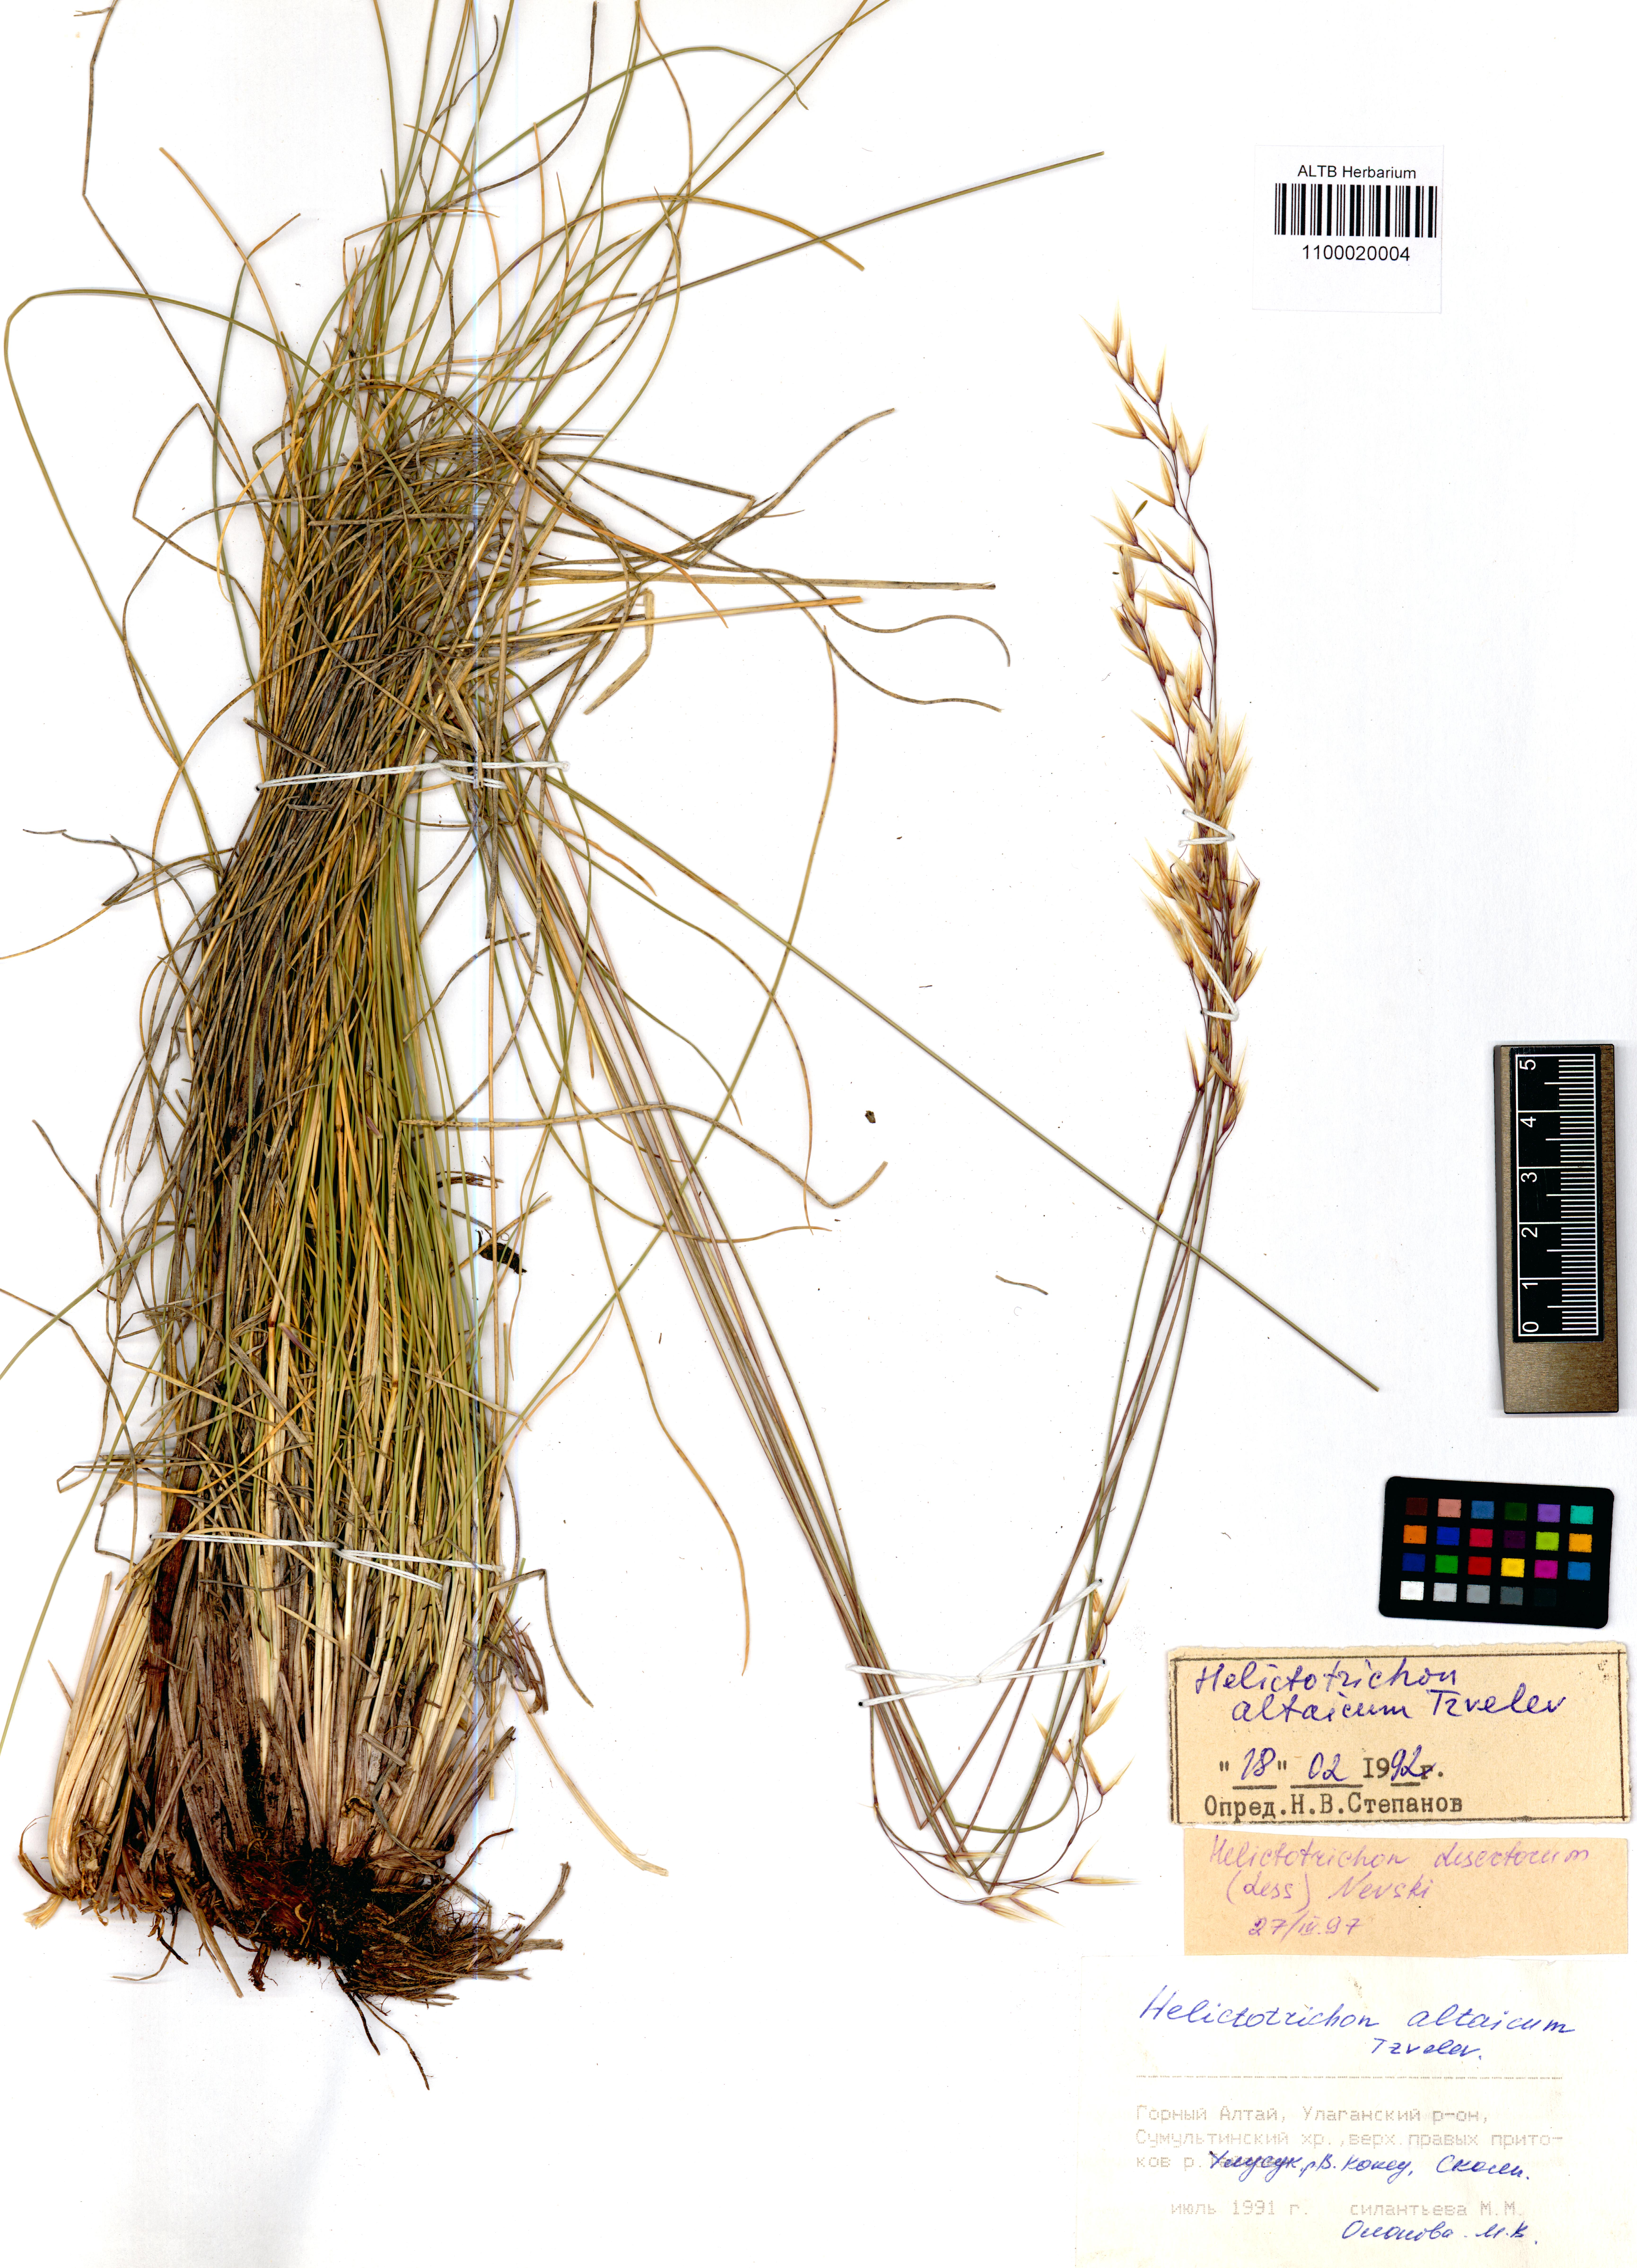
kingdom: Plantae
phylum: Tracheophyta
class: Liliopsida
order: Poales
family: Poaceae
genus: Helictotrichon
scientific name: Helictotrichon desertorum
